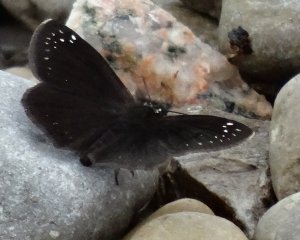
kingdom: Animalia
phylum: Arthropoda
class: Insecta
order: Lepidoptera
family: Hesperiidae
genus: Pholisora
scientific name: Pholisora catullus
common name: Common Sootywing
